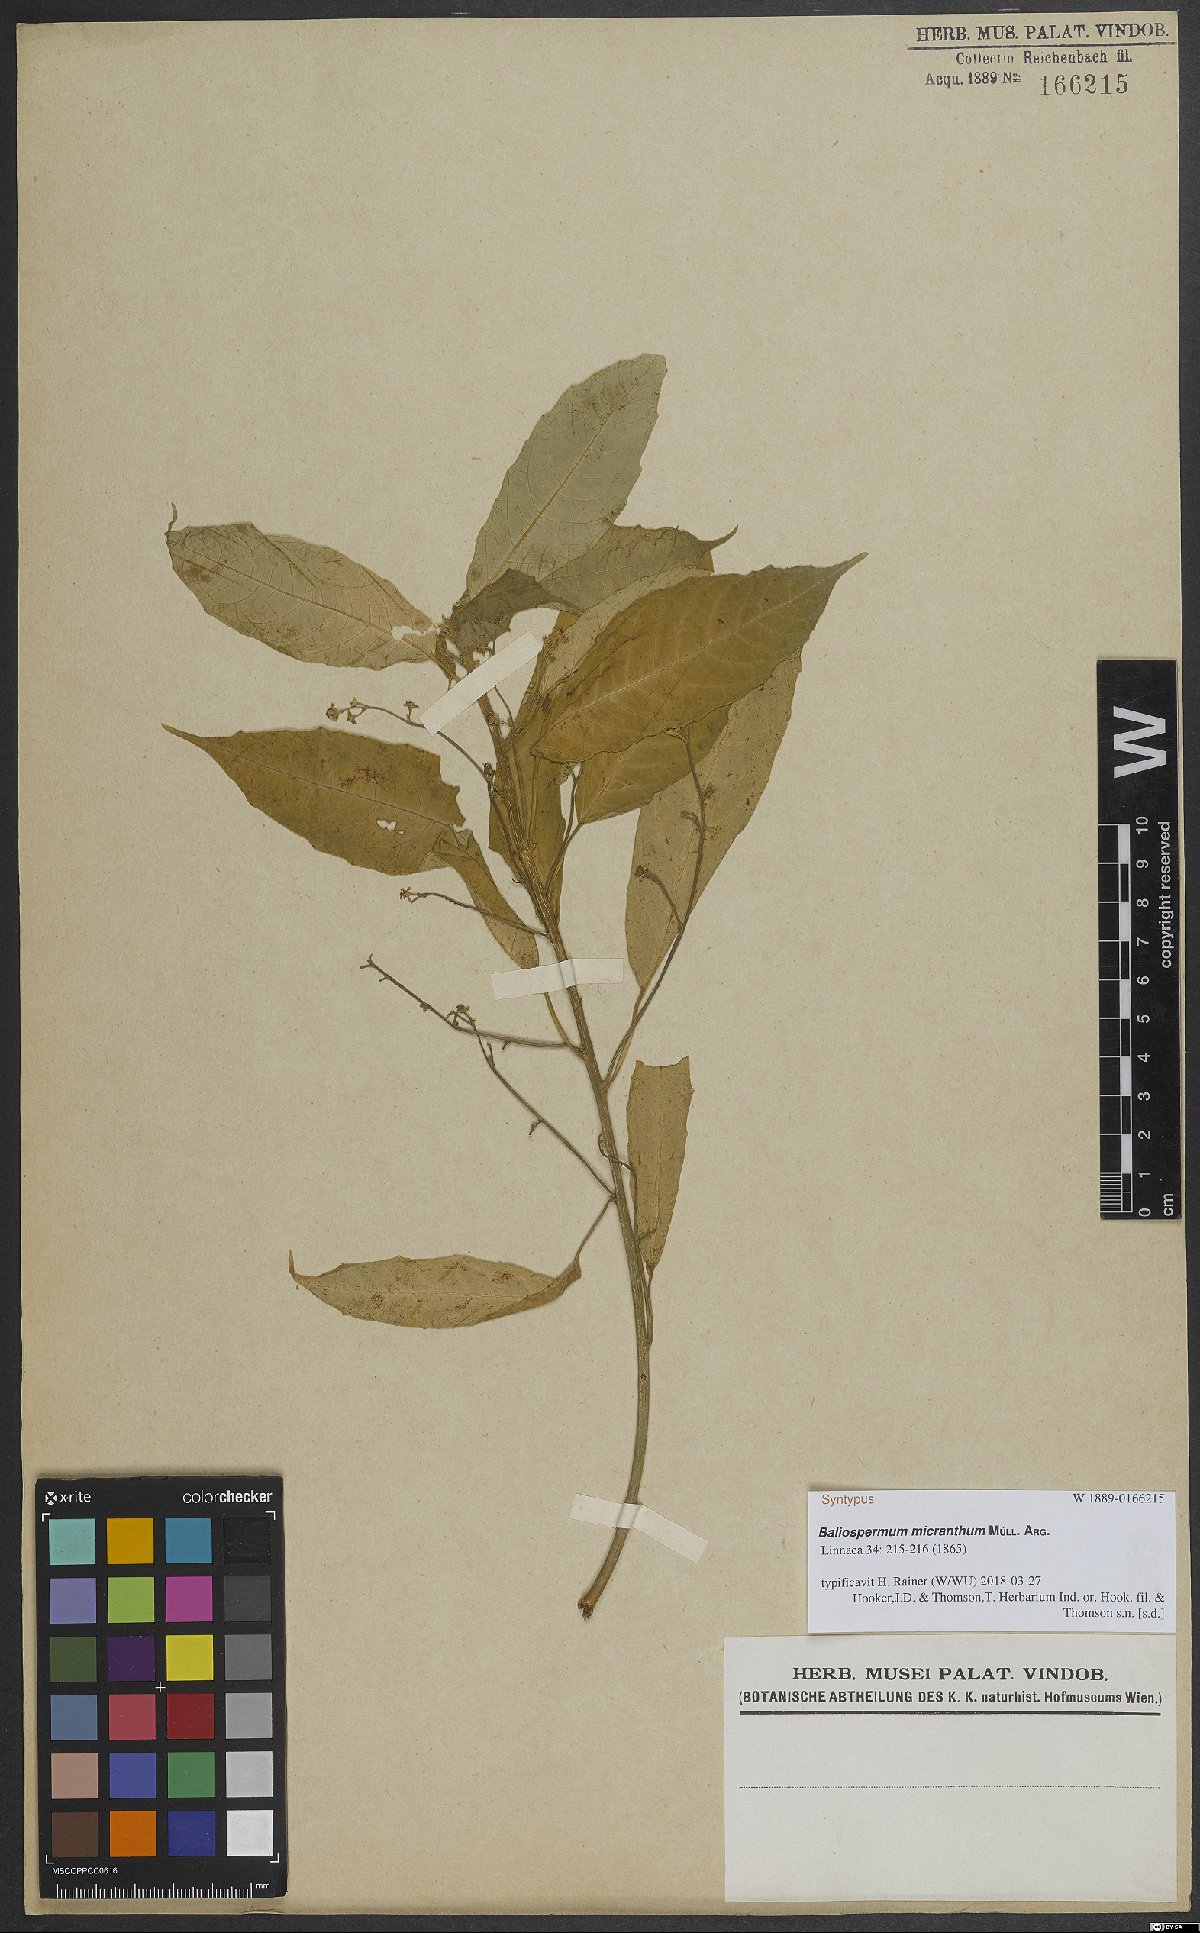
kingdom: Plantae
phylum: Tracheophyta
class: Magnoliopsida
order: Malpighiales
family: Euphorbiaceae
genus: Baliospermum
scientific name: Baliospermum calycinum
